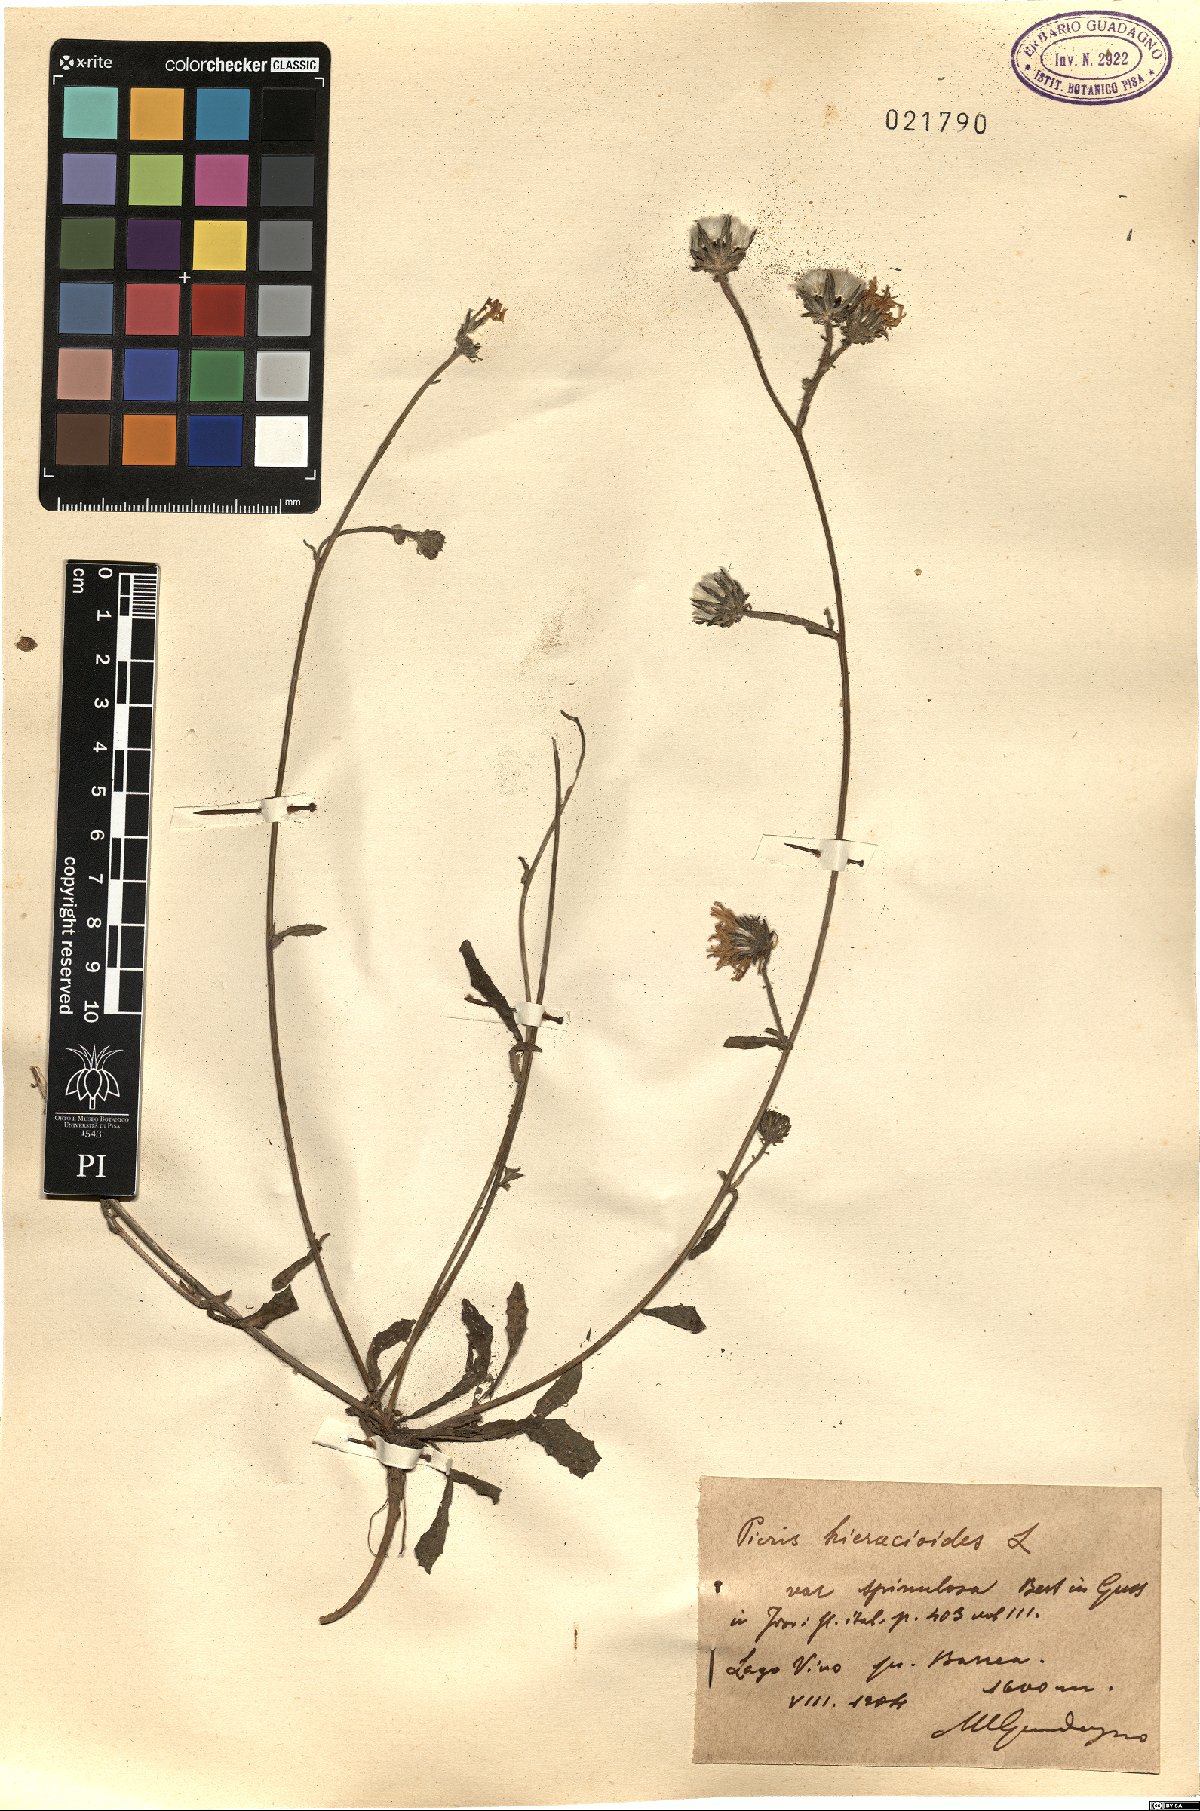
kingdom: Plantae
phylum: Tracheophyta
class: Magnoliopsida
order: Asterales
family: Asteraceae
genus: Picris
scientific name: Picris hieracioides
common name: Hawkweed oxtongue
